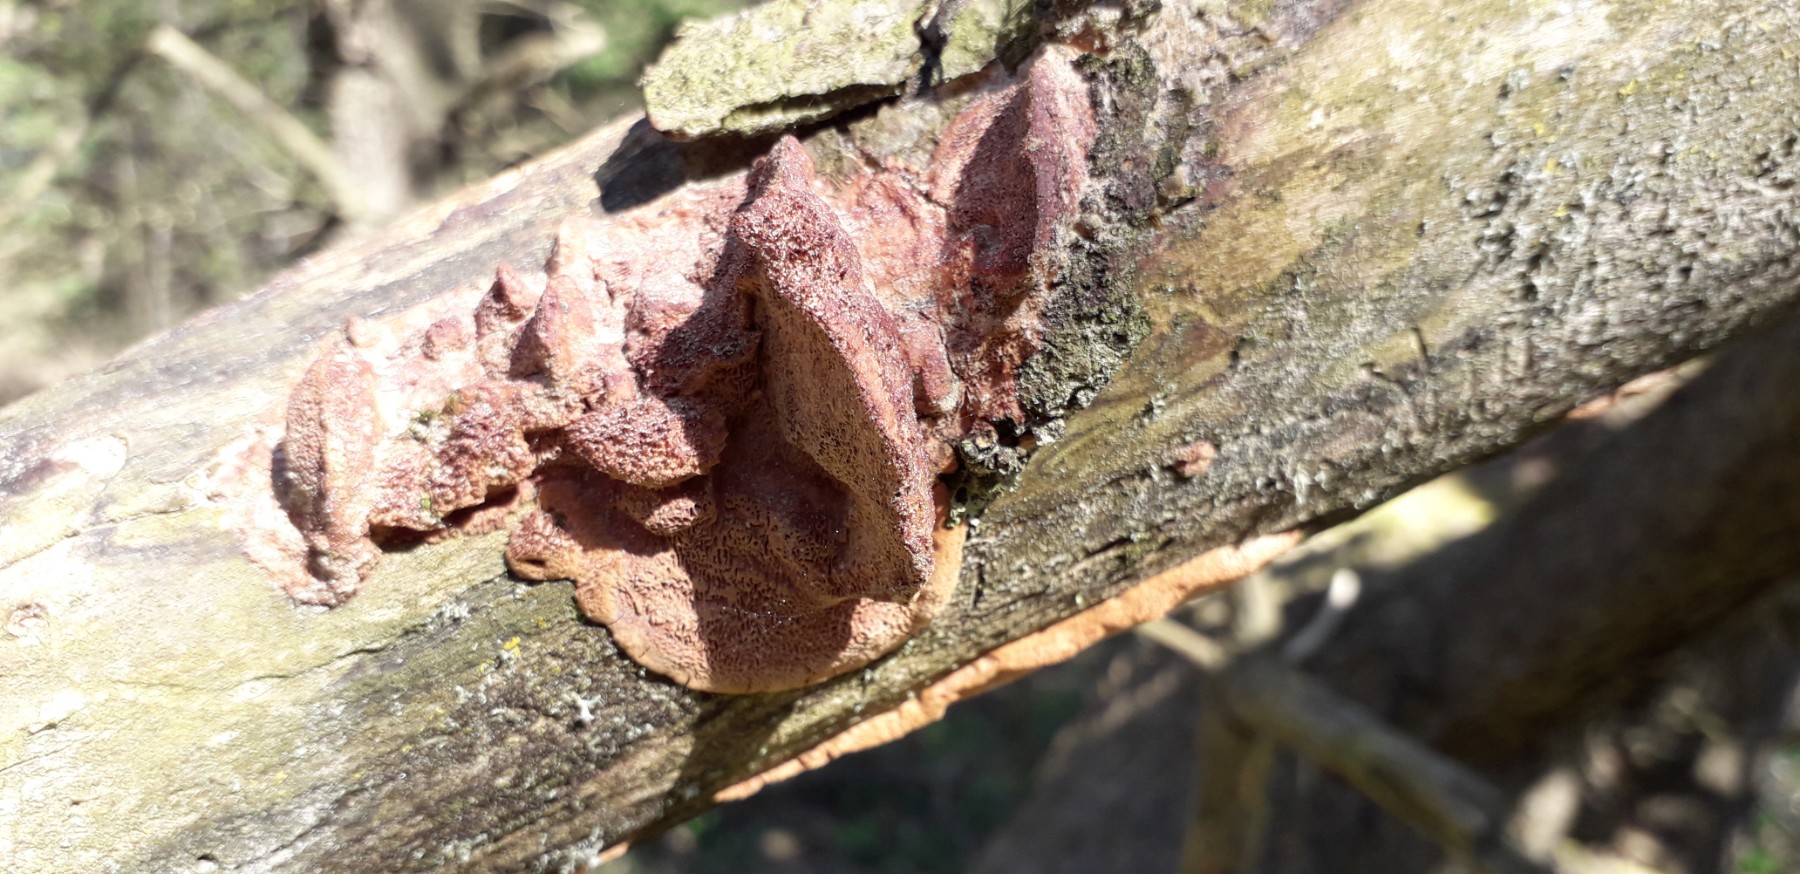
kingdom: Fungi
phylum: Basidiomycota
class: Agaricomycetes
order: Polyporales
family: Phanerochaetaceae
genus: Hapalopilus
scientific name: Hapalopilus rutilans
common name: rødlig okkerporesvamp
